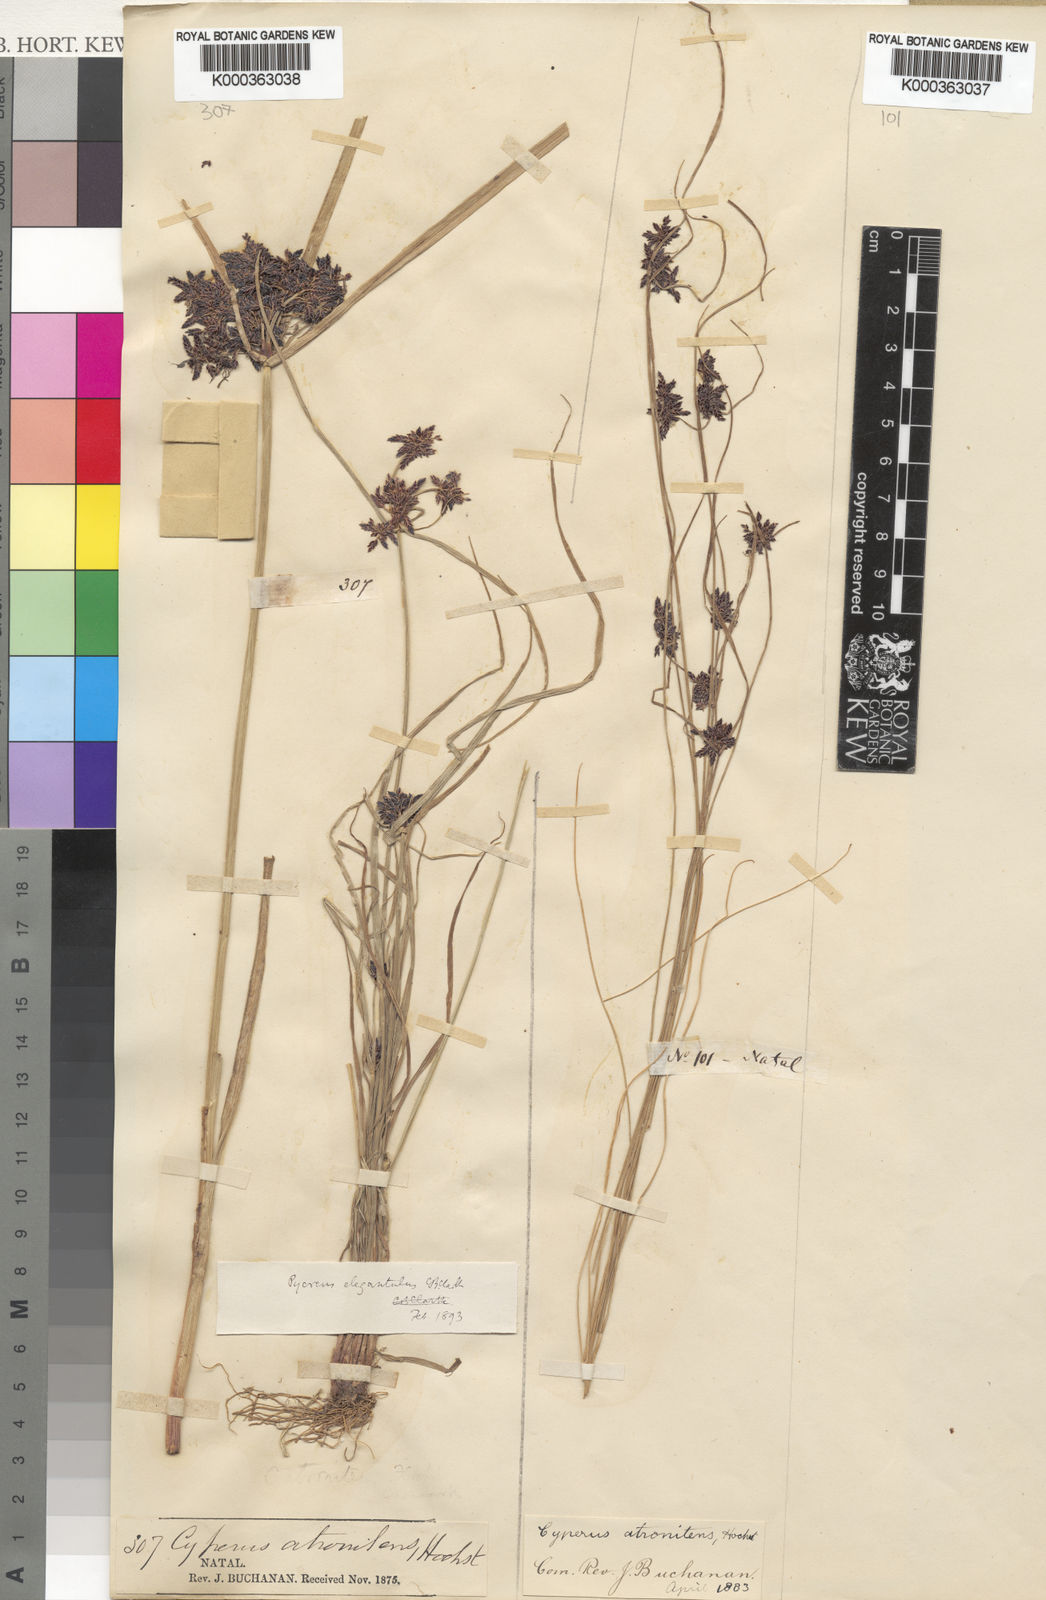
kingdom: Plantae
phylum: Tracheophyta
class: Liliopsida
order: Poales
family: Cyperaceae
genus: Cyperus
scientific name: Cyperus elegantulus
